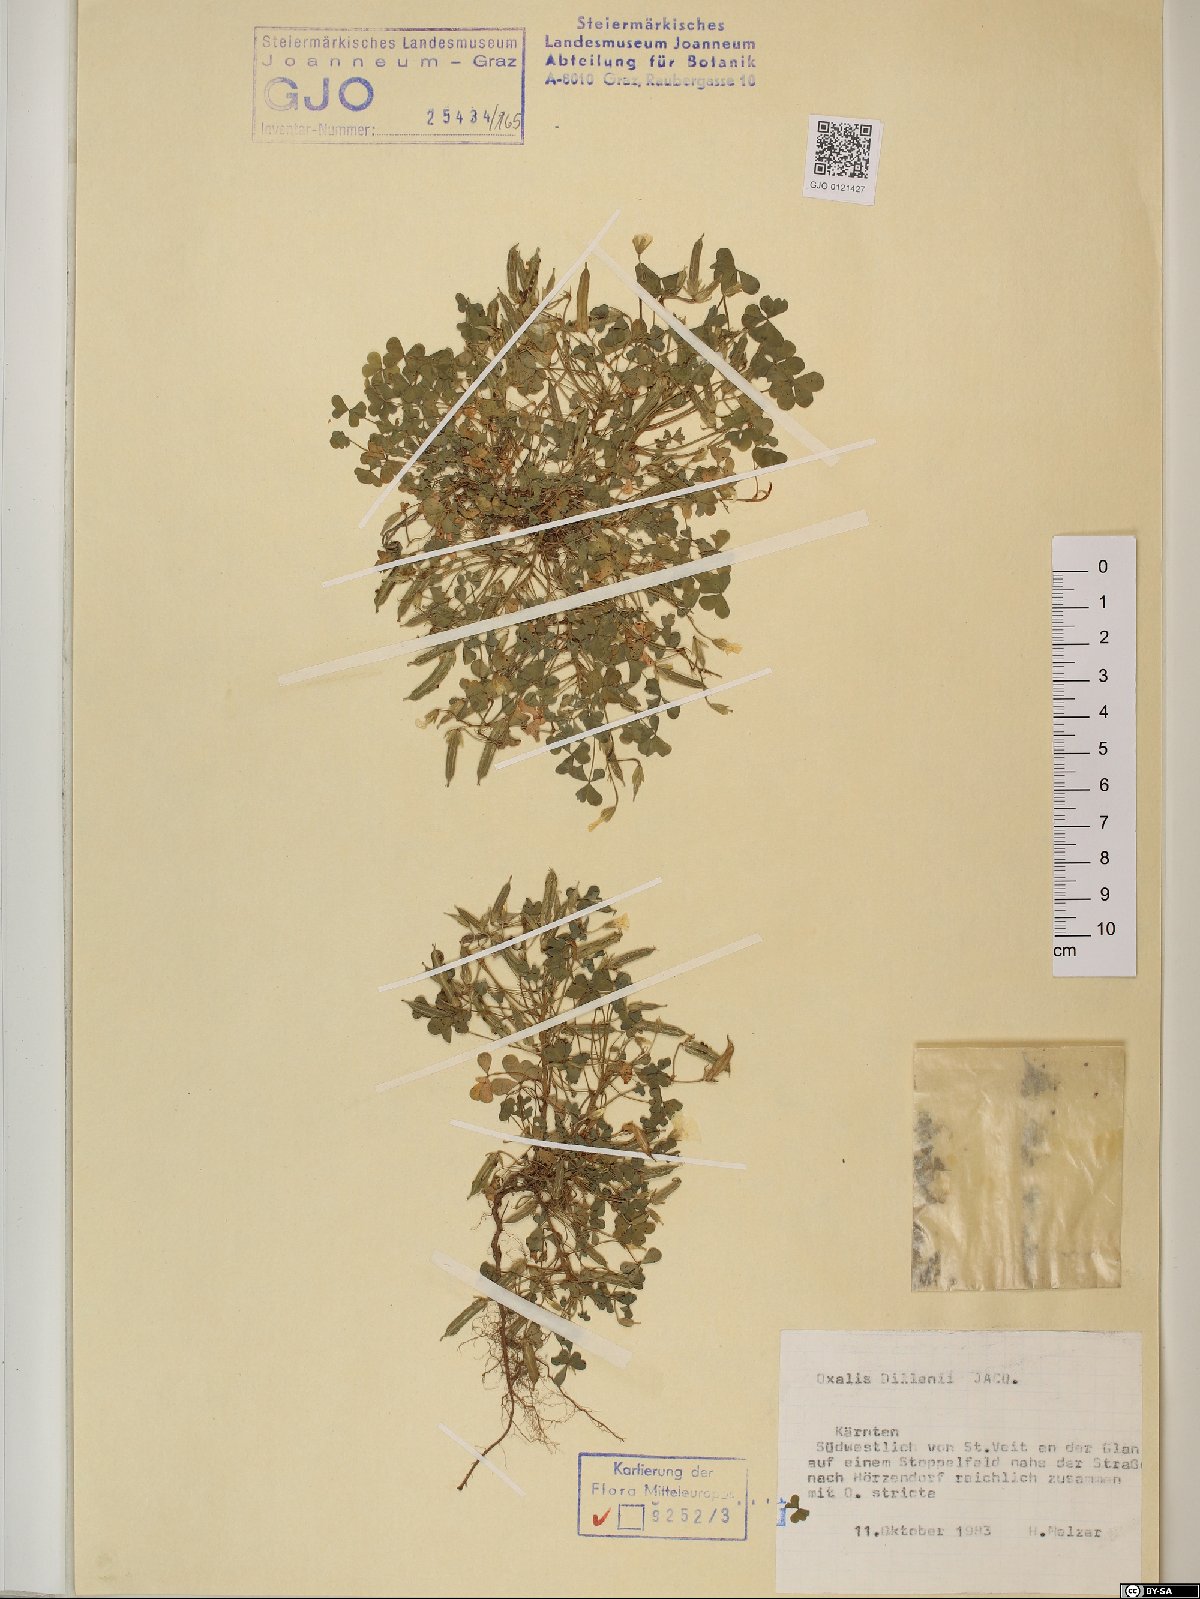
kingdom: Plantae
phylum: Tracheophyta
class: Magnoliopsida
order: Oxalidales
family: Oxalidaceae
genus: Oxalis
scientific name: Oxalis dillenii
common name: Sussex yellow-sorrel
